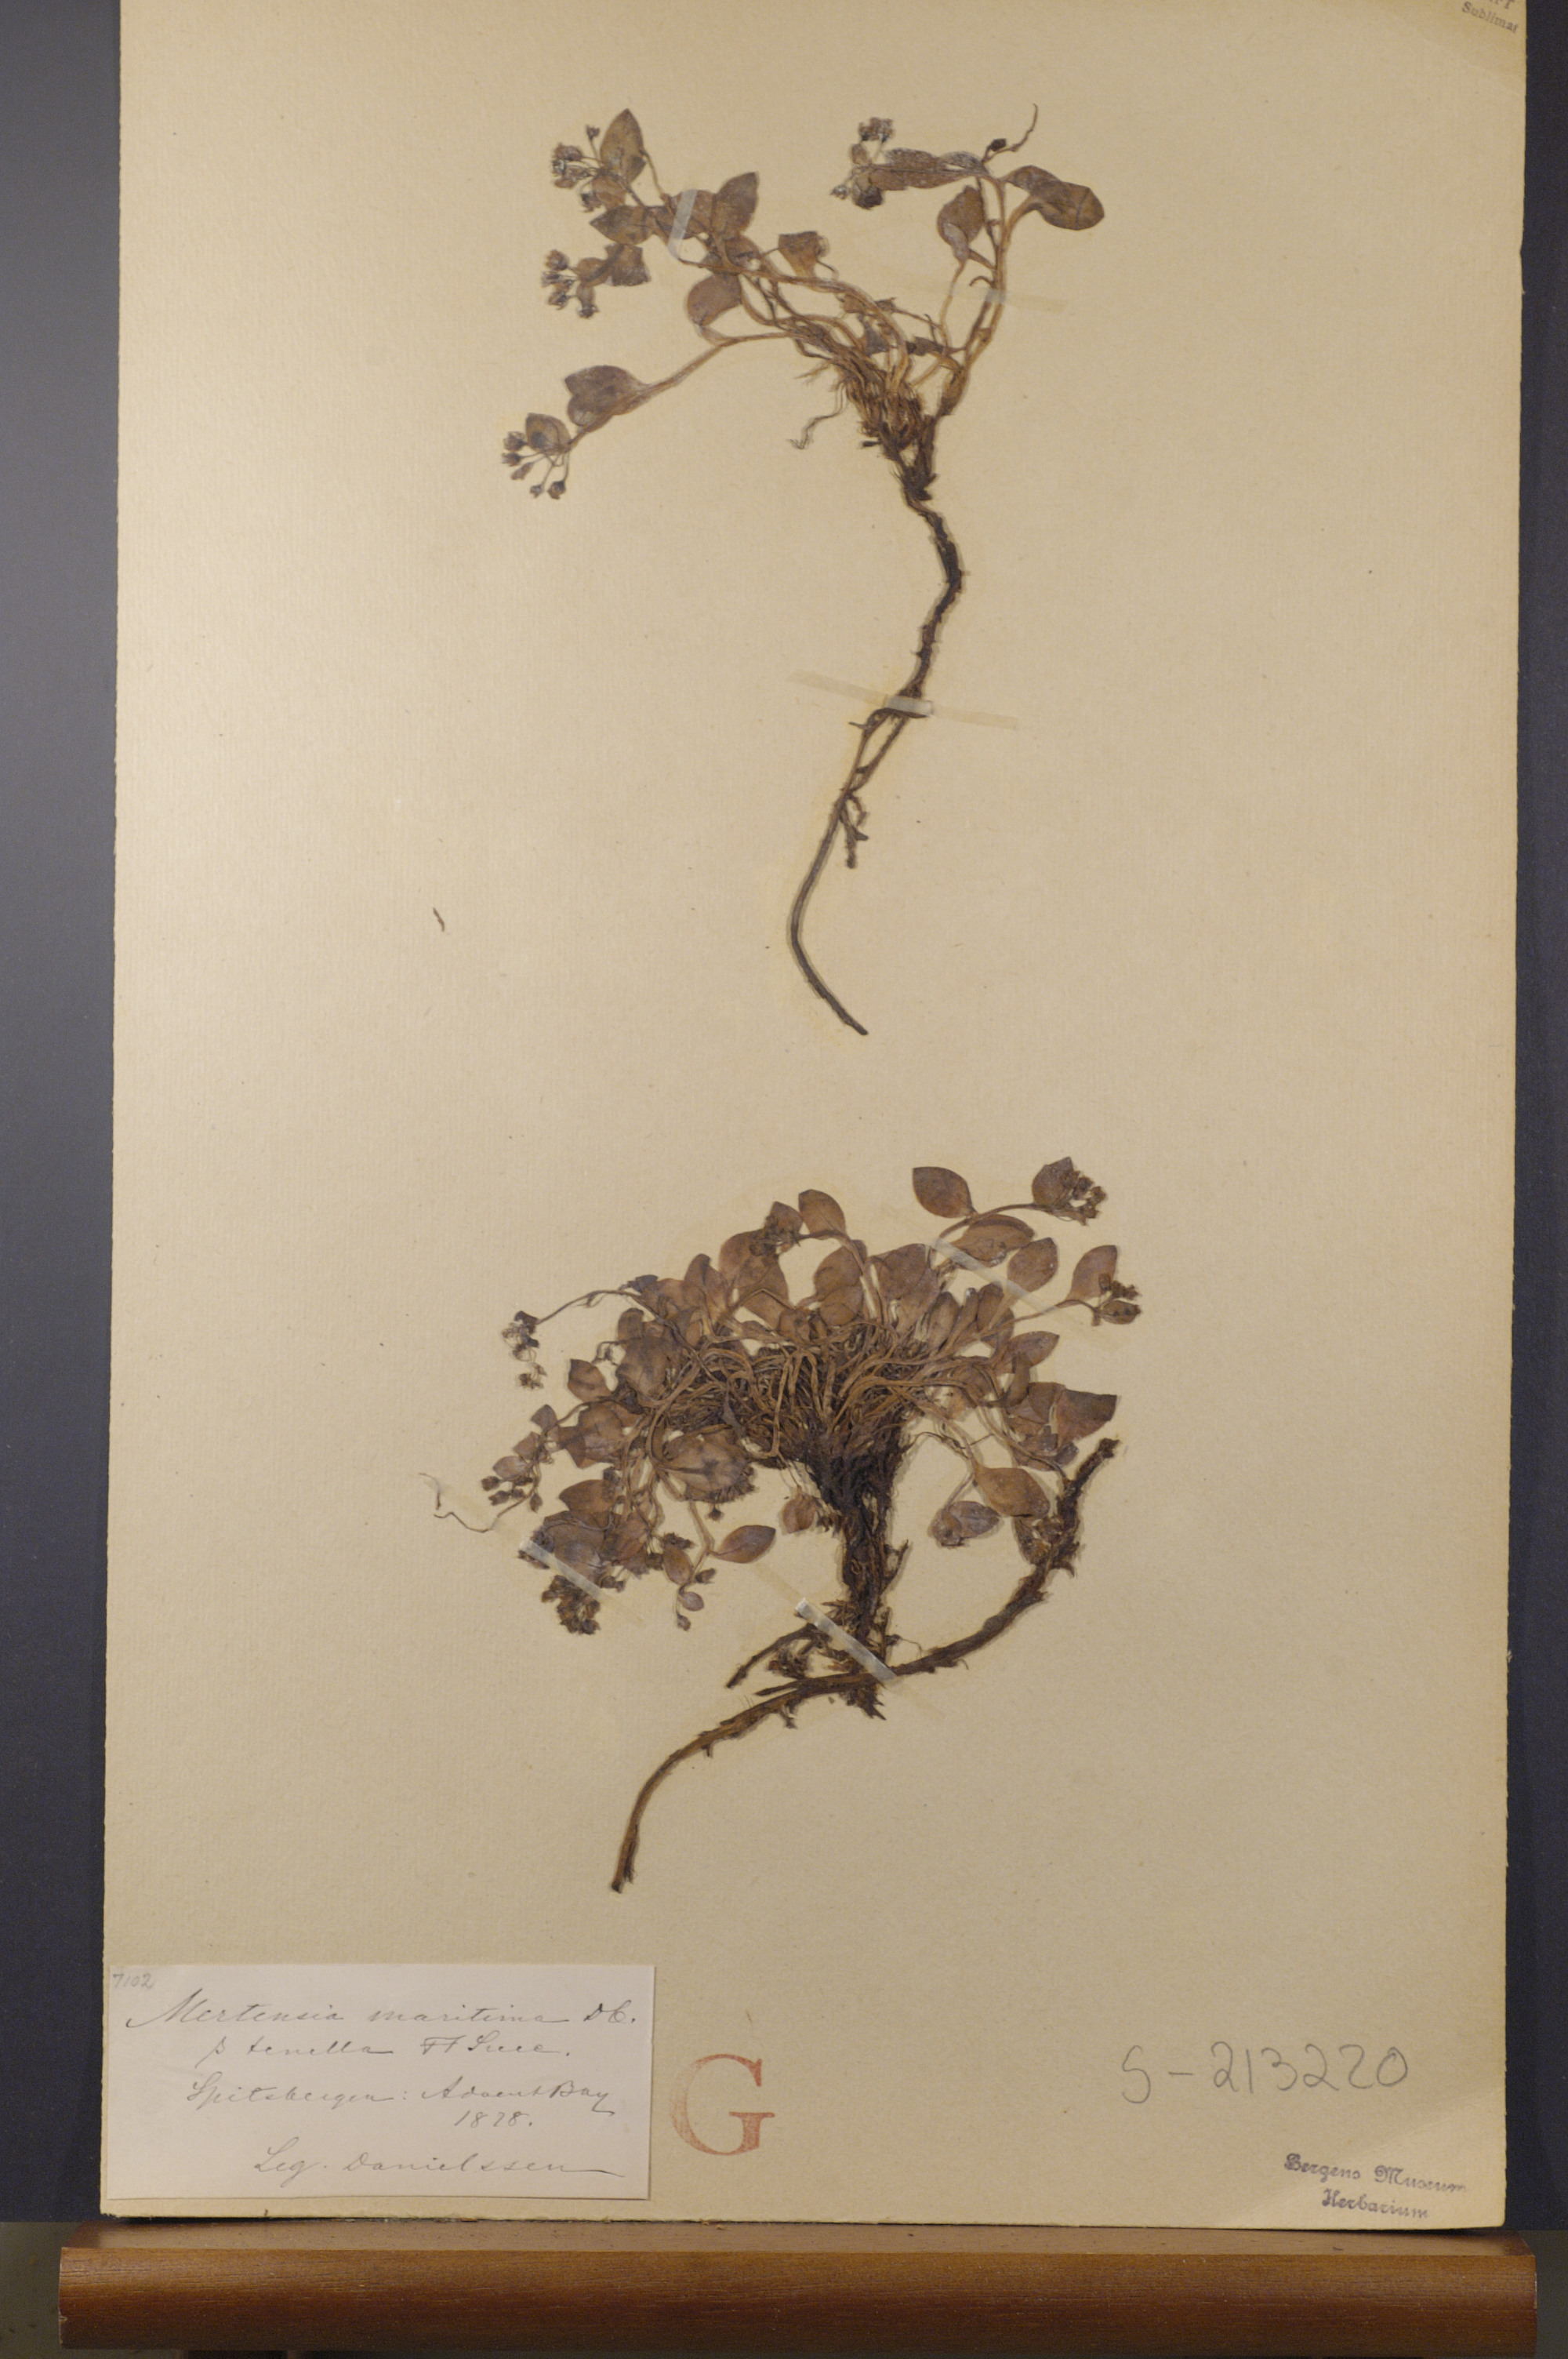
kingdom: Plantae
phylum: Tracheophyta
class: Magnoliopsida
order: Boraginales
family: Boraginaceae
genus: Mertensia
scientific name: Mertensia maritima
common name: Oysterplant
